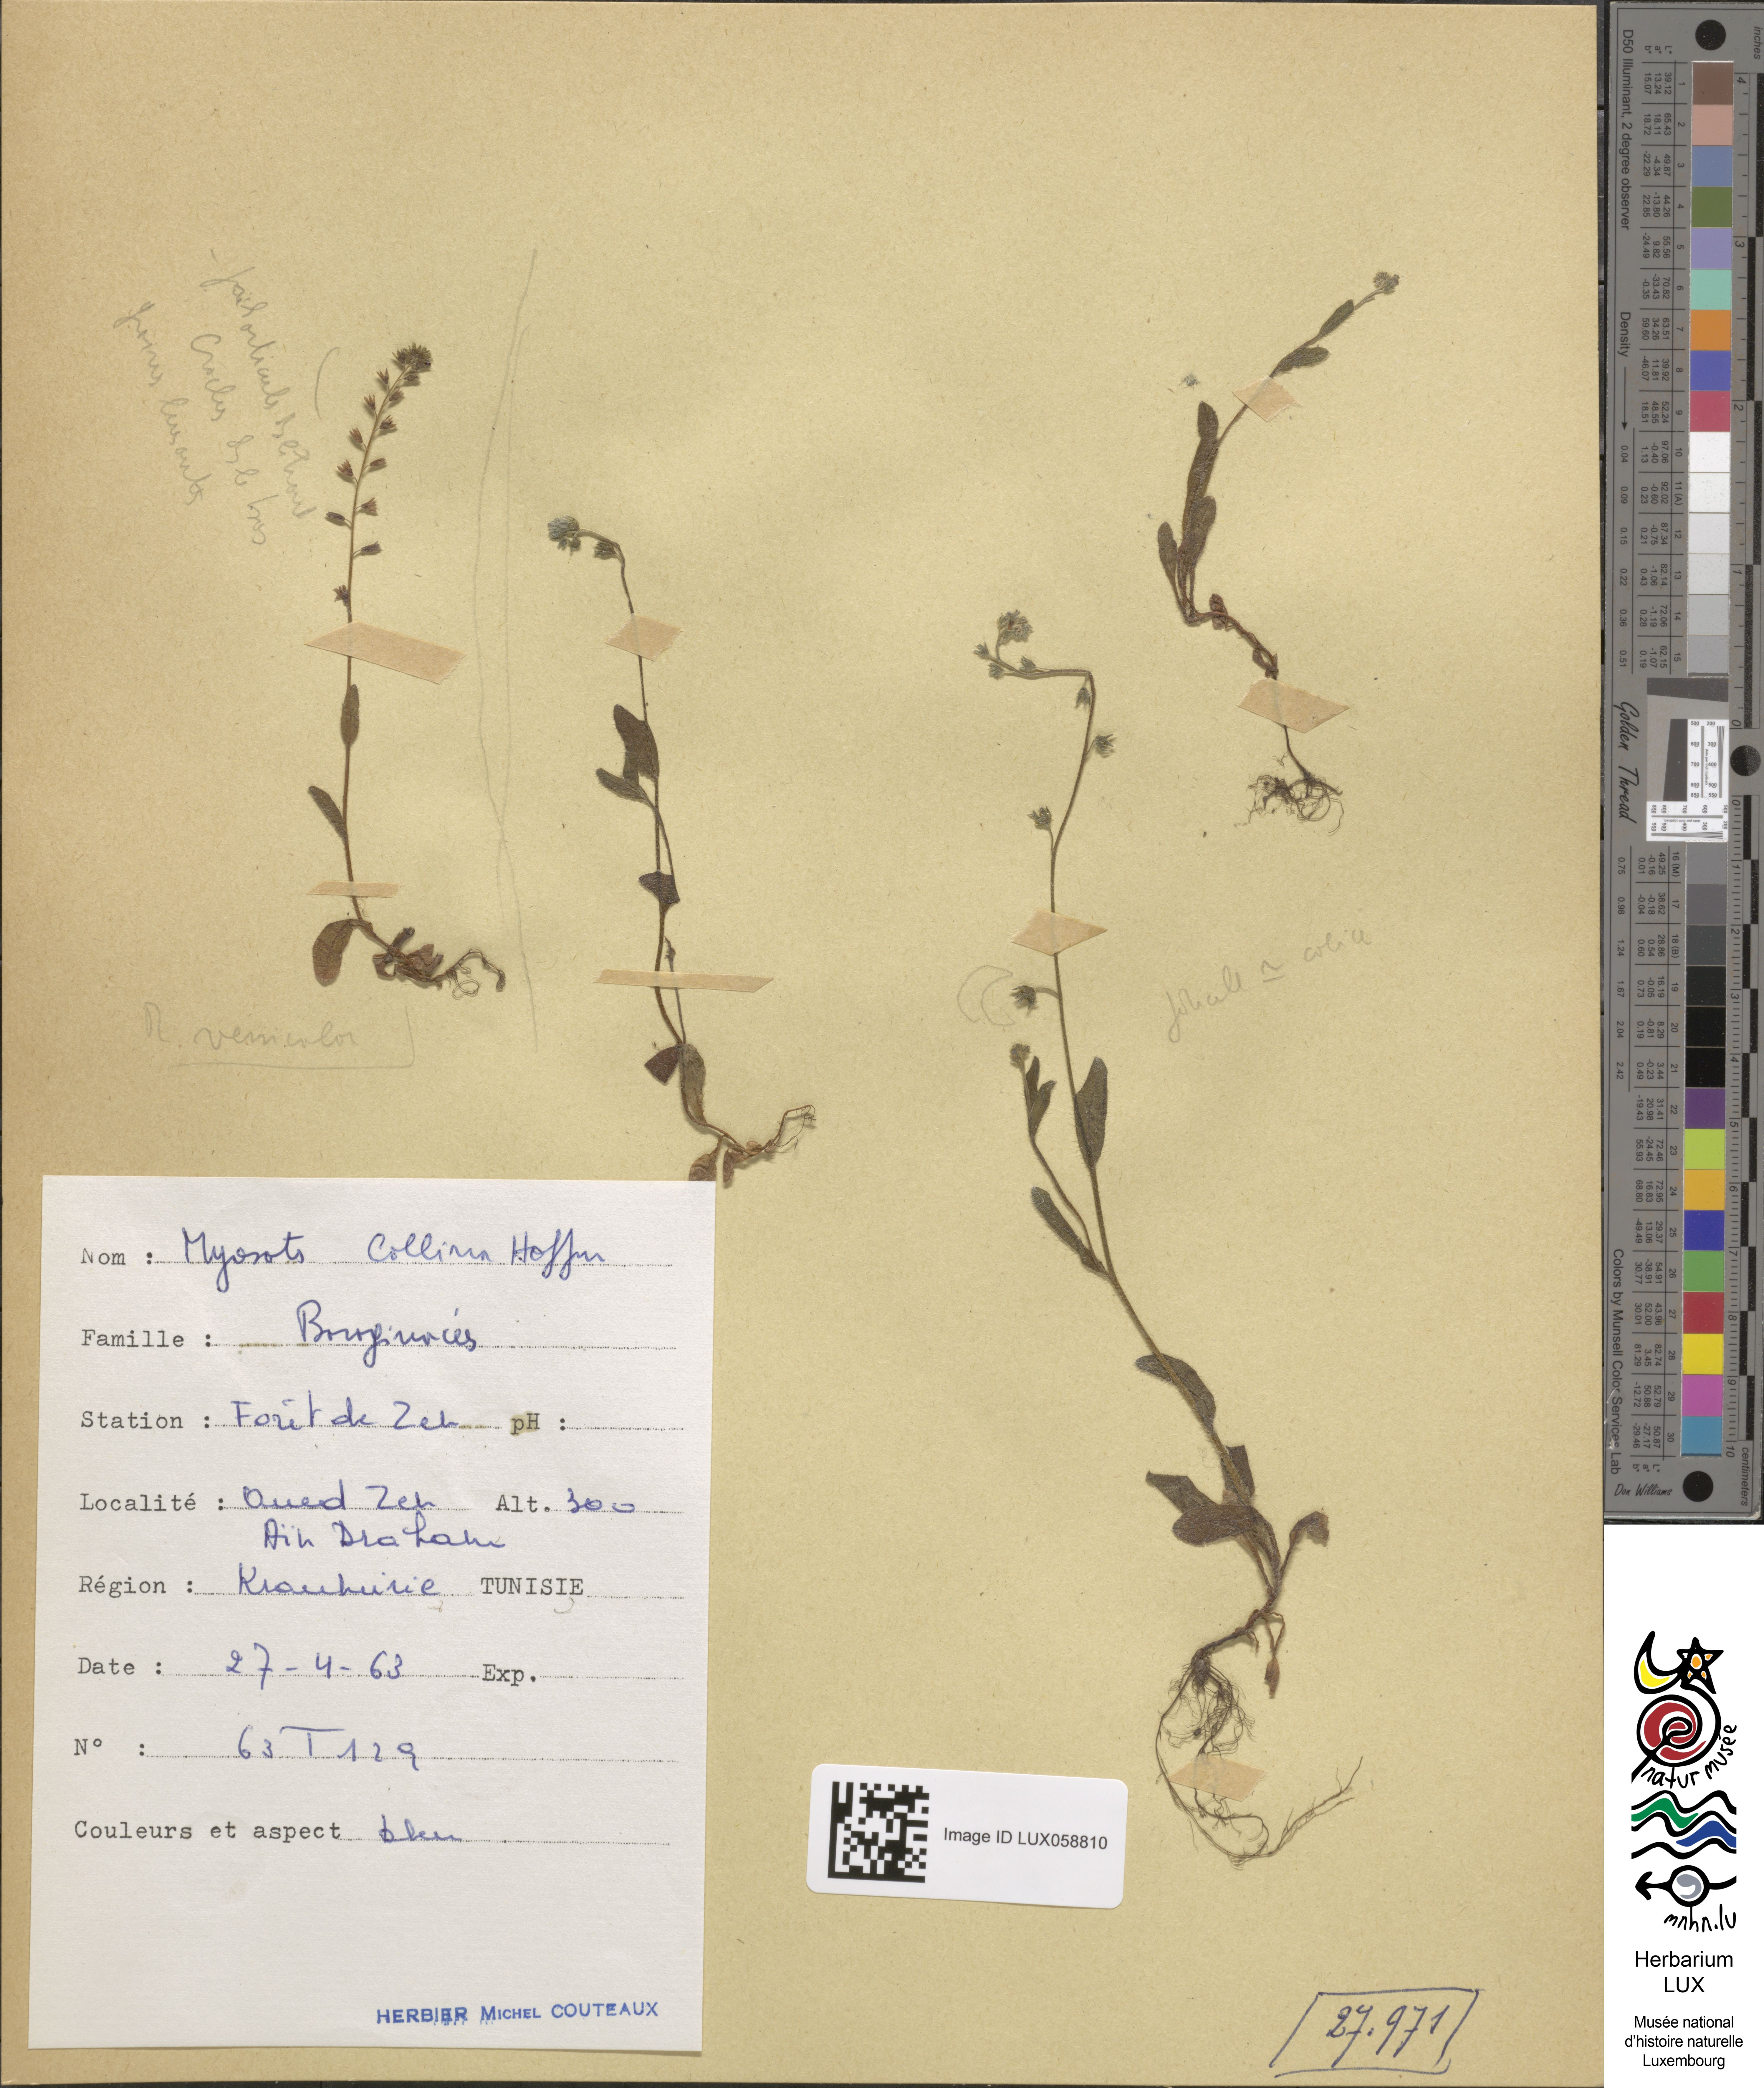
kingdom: Plantae
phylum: Tracheophyta
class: Magnoliopsida
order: Boraginales
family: Boraginaceae
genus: Myosotis
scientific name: Myosotis discolor
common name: Changing forget-me-not
